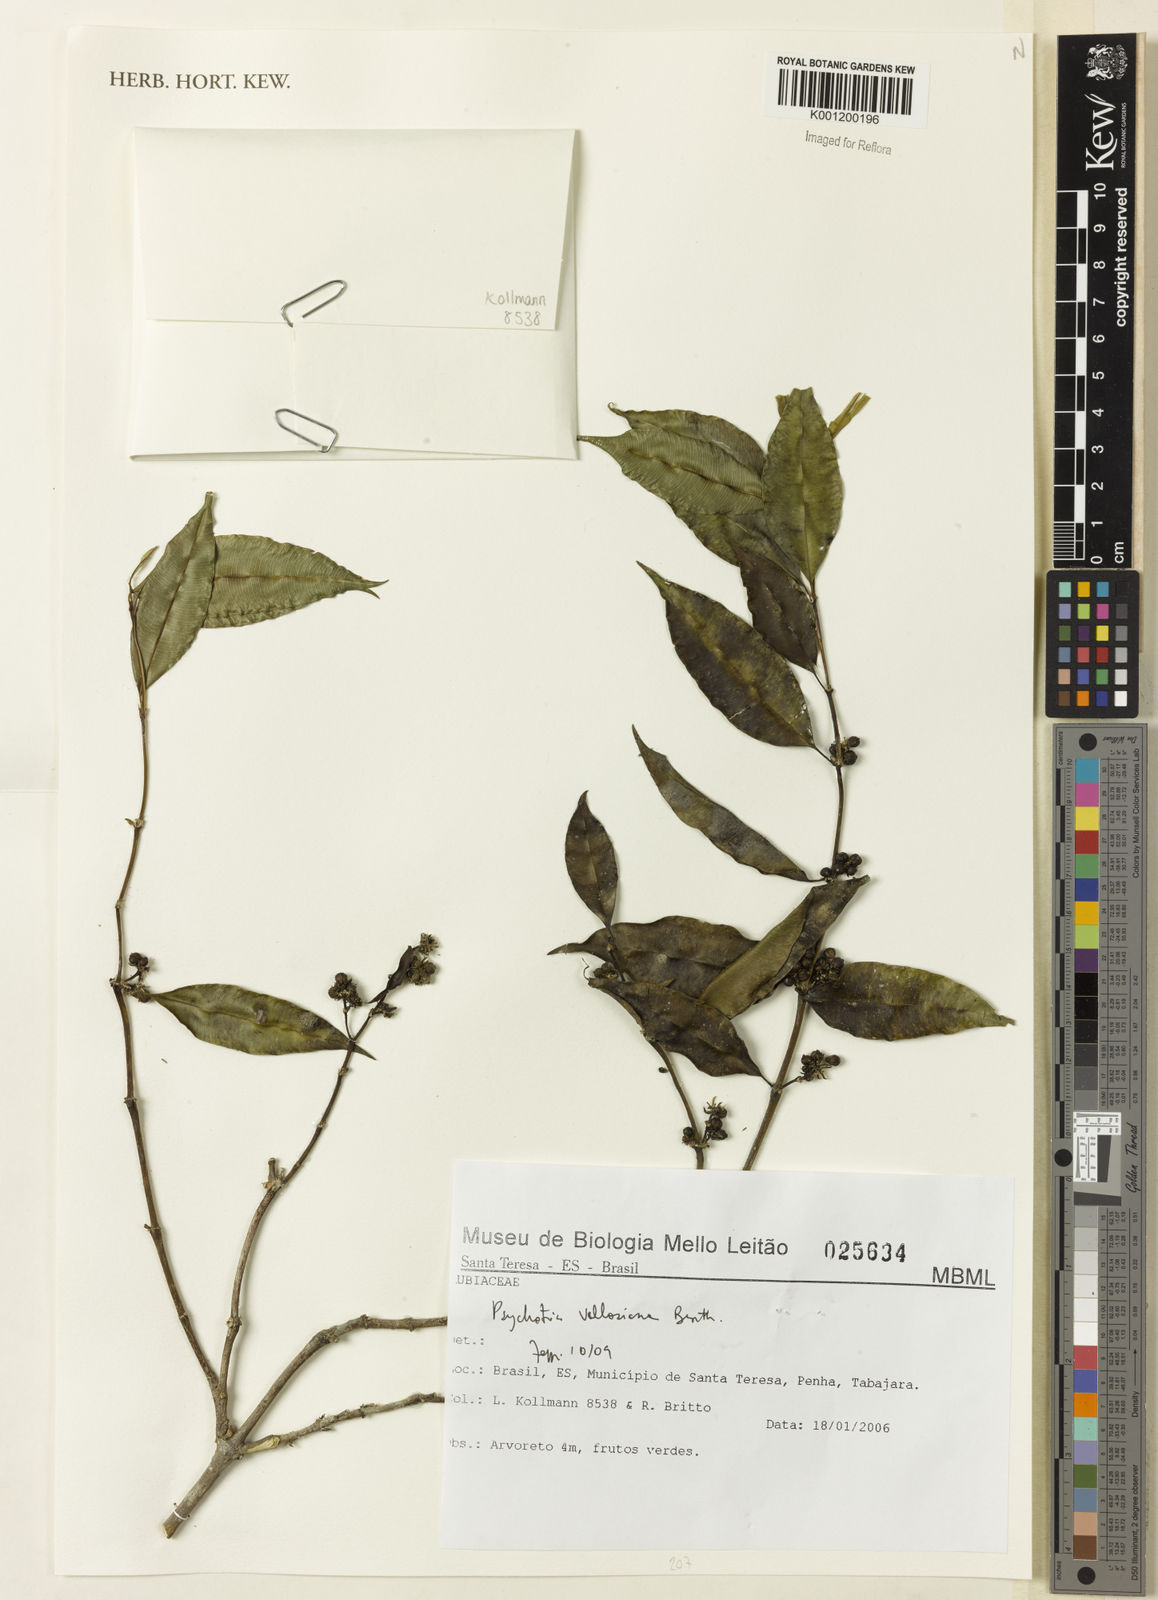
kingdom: Plantae
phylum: Tracheophyta
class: Magnoliopsida
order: Gentianales
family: Rubiaceae
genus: Palicourea
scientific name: Palicourea sessilis
